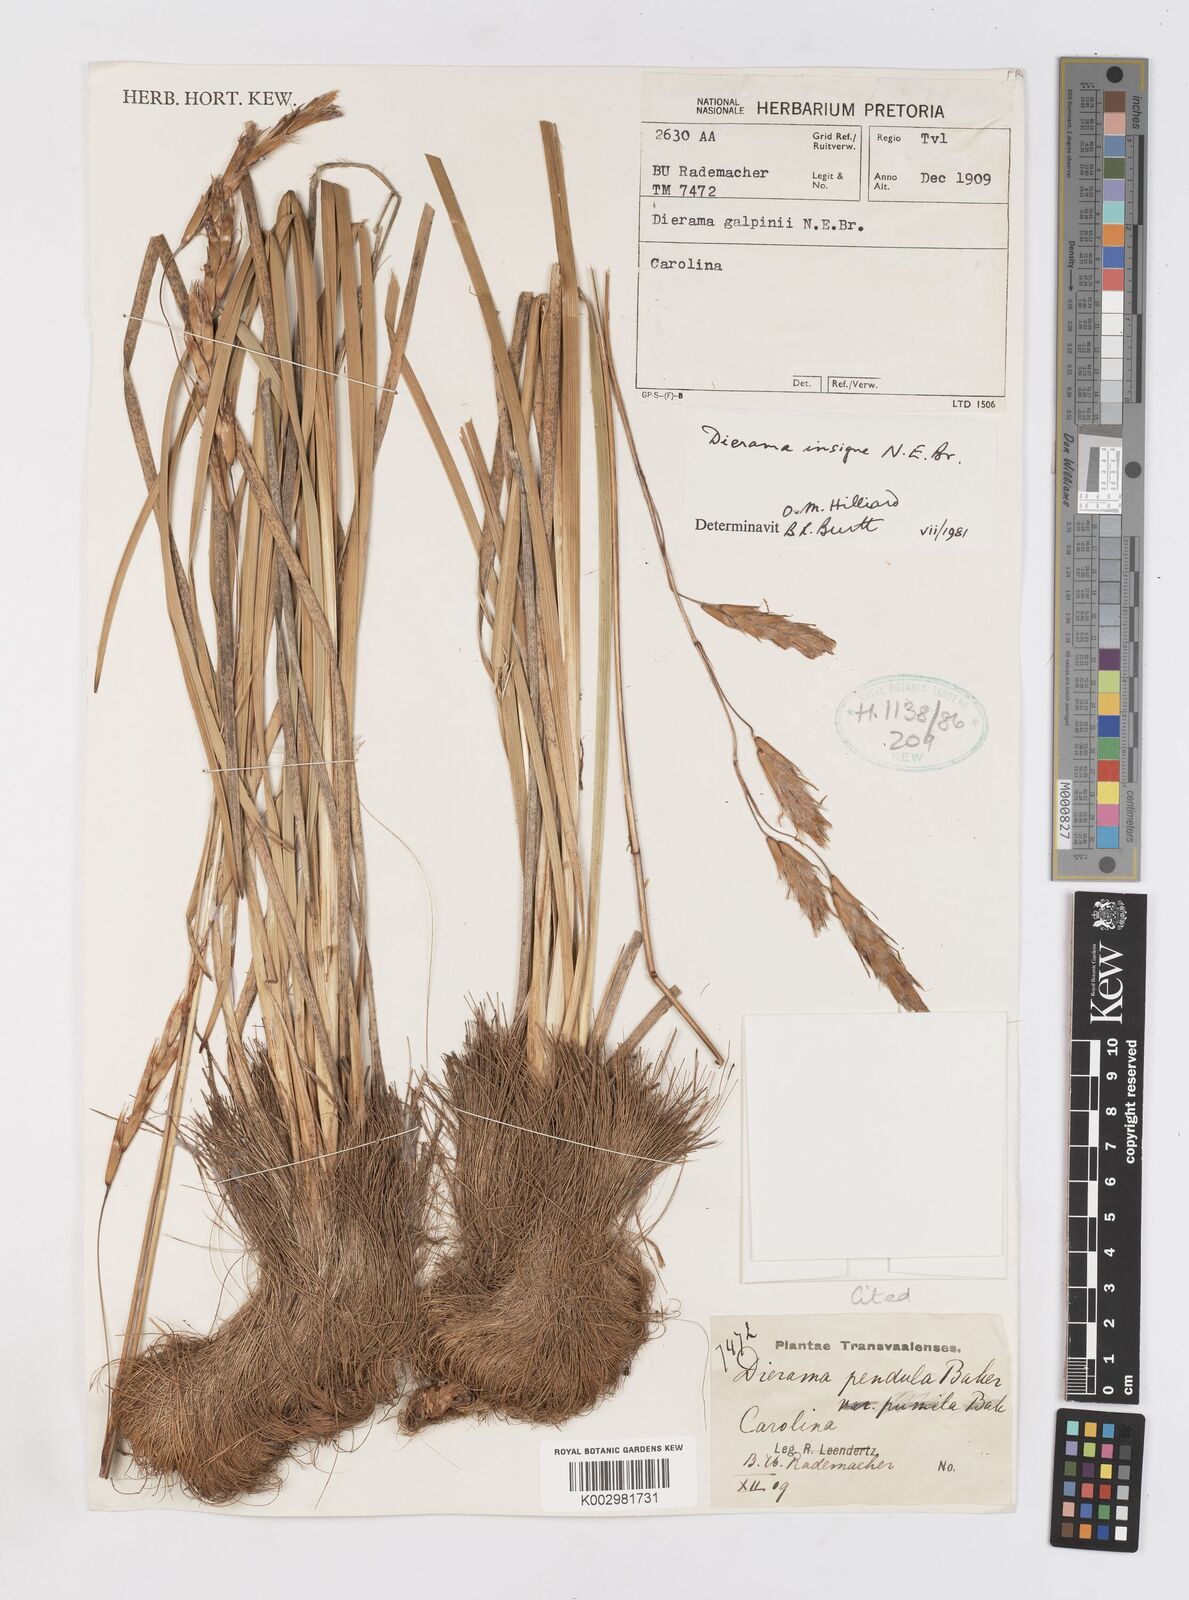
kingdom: Plantae
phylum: Tracheophyta
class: Liliopsida
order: Asparagales
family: Iridaceae
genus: Dierama
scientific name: Dierama insigne
